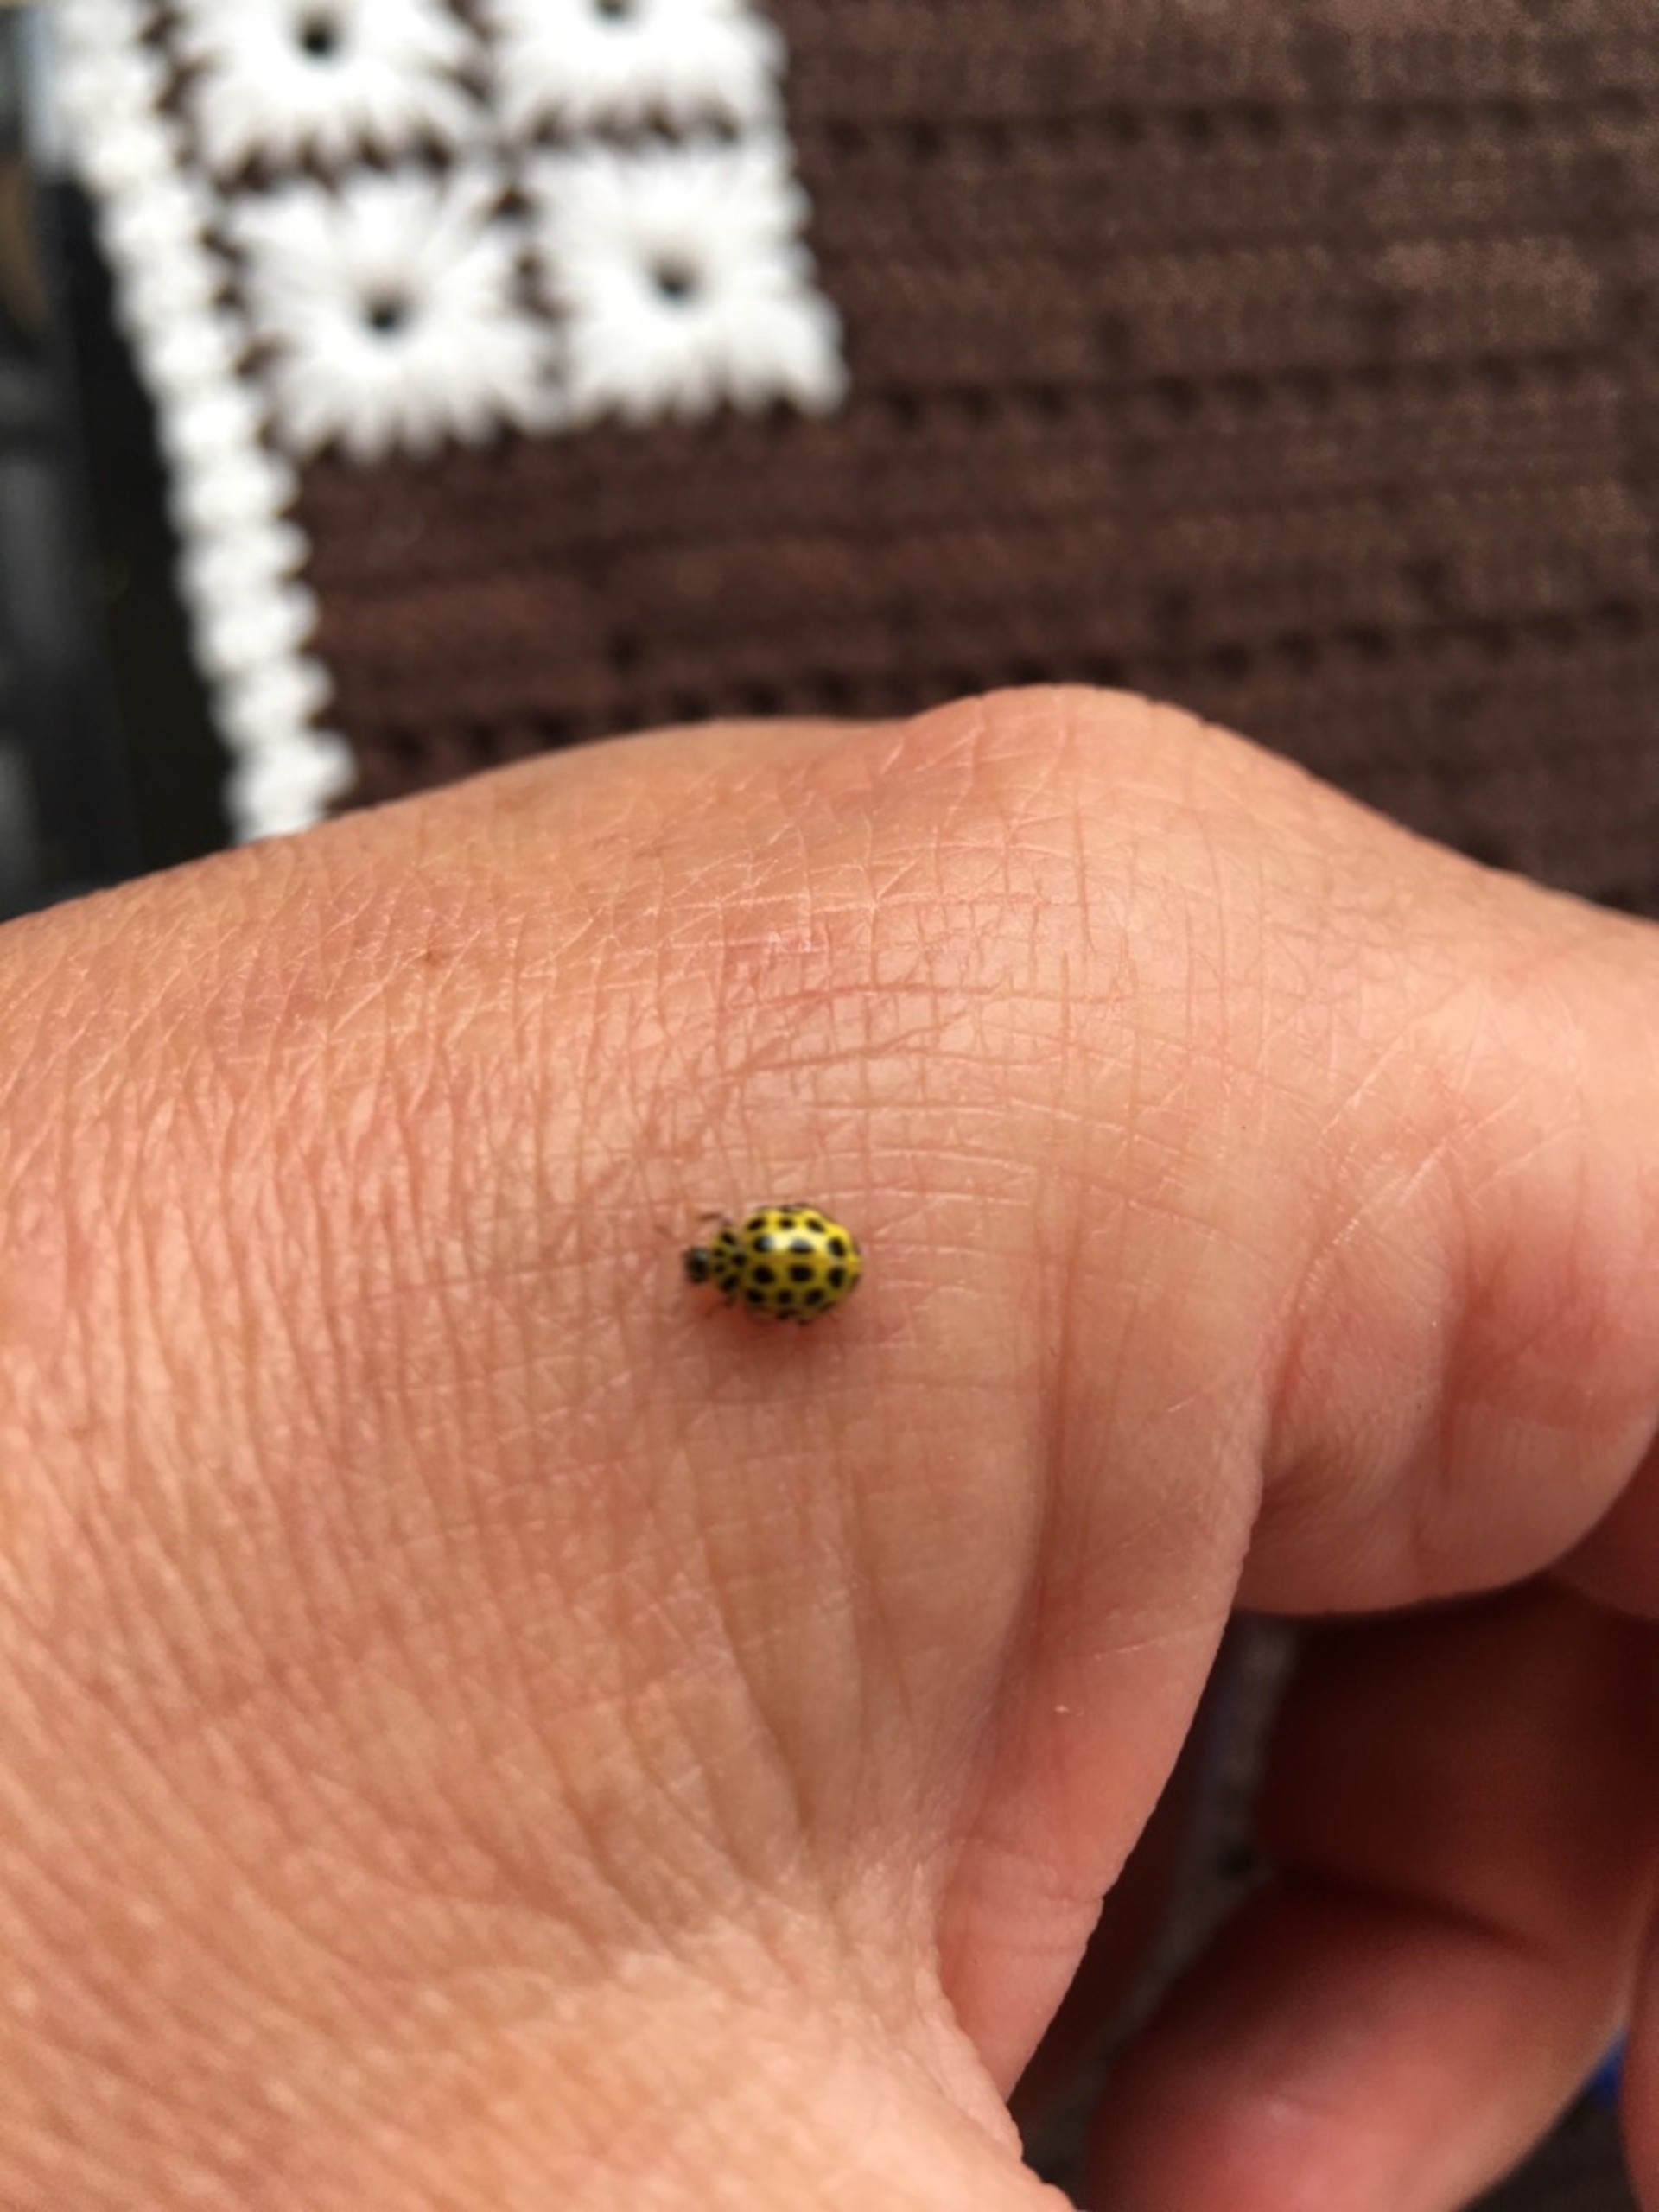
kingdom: Animalia
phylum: Arthropoda
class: Insecta
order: Coleoptera
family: Coccinellidae
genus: Psyllobora
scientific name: Psyllobora vigintiduopunctata
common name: Toogtyveplettet mariehøne
